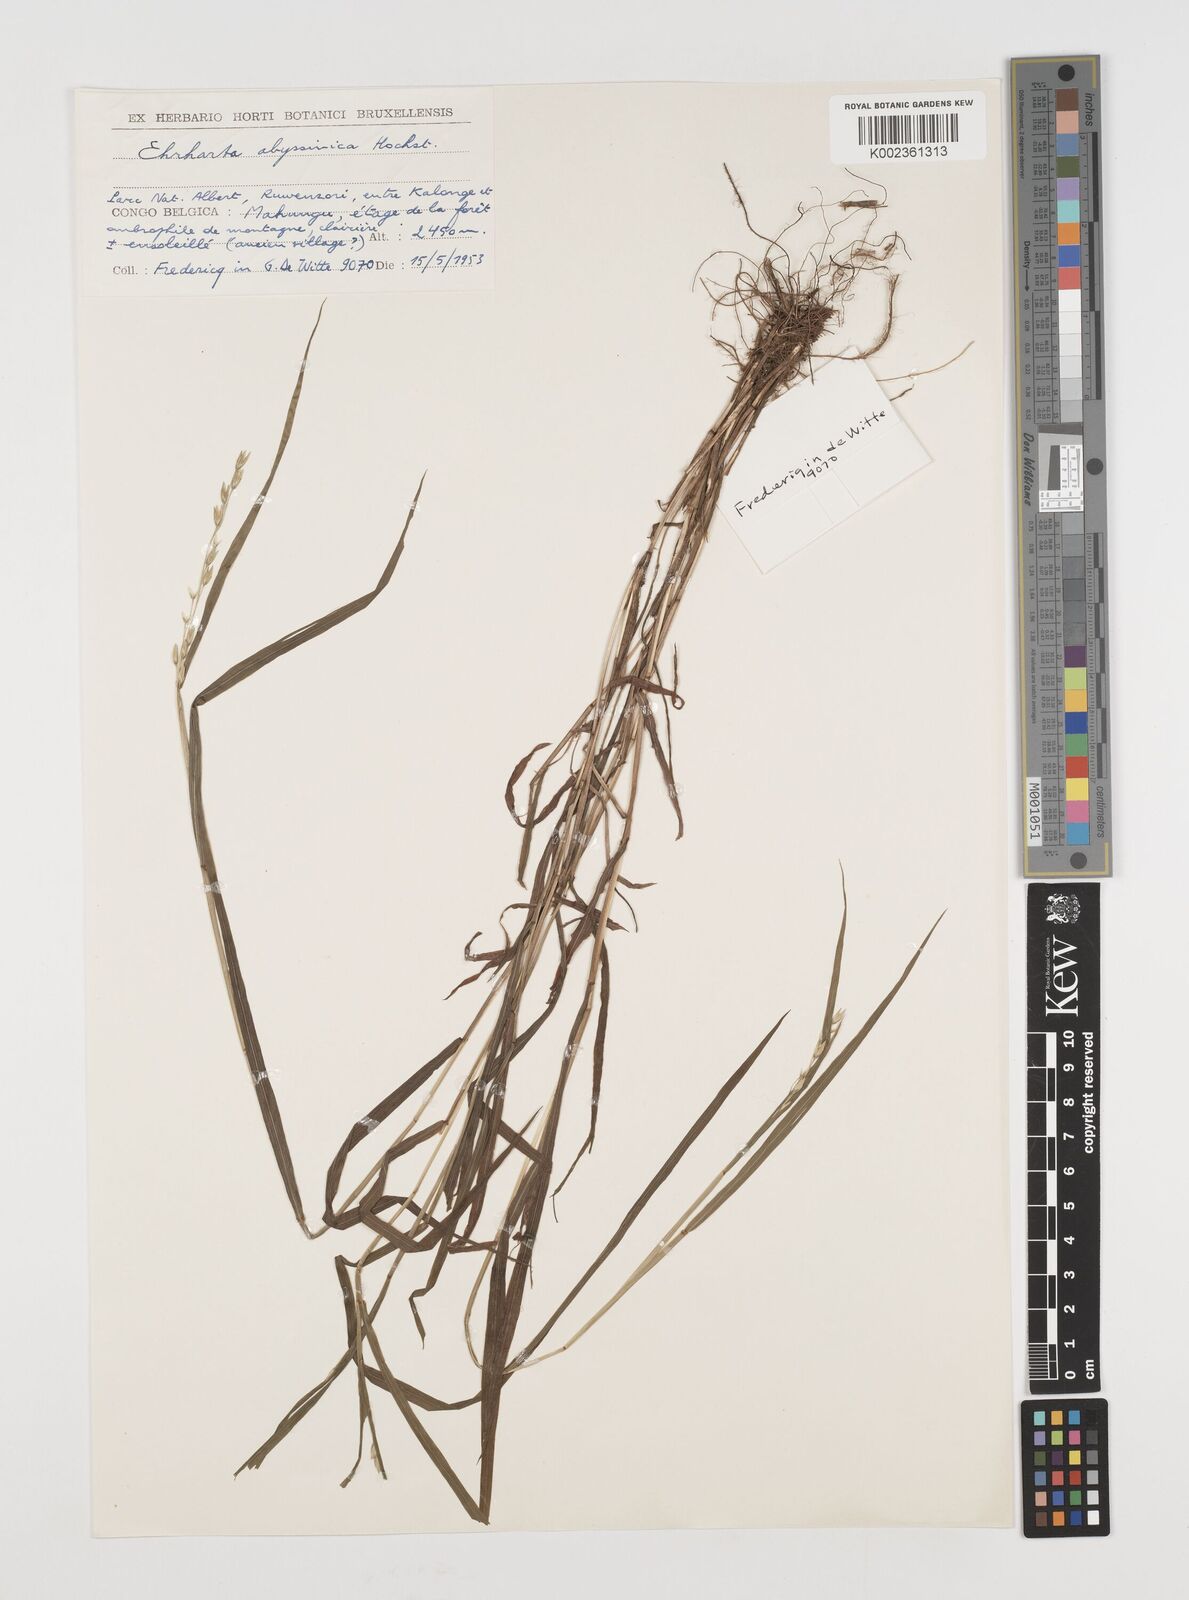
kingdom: Plantae
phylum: Tracheophyta
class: Liliopsida
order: Poales
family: Poaceae
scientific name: Poaceae
